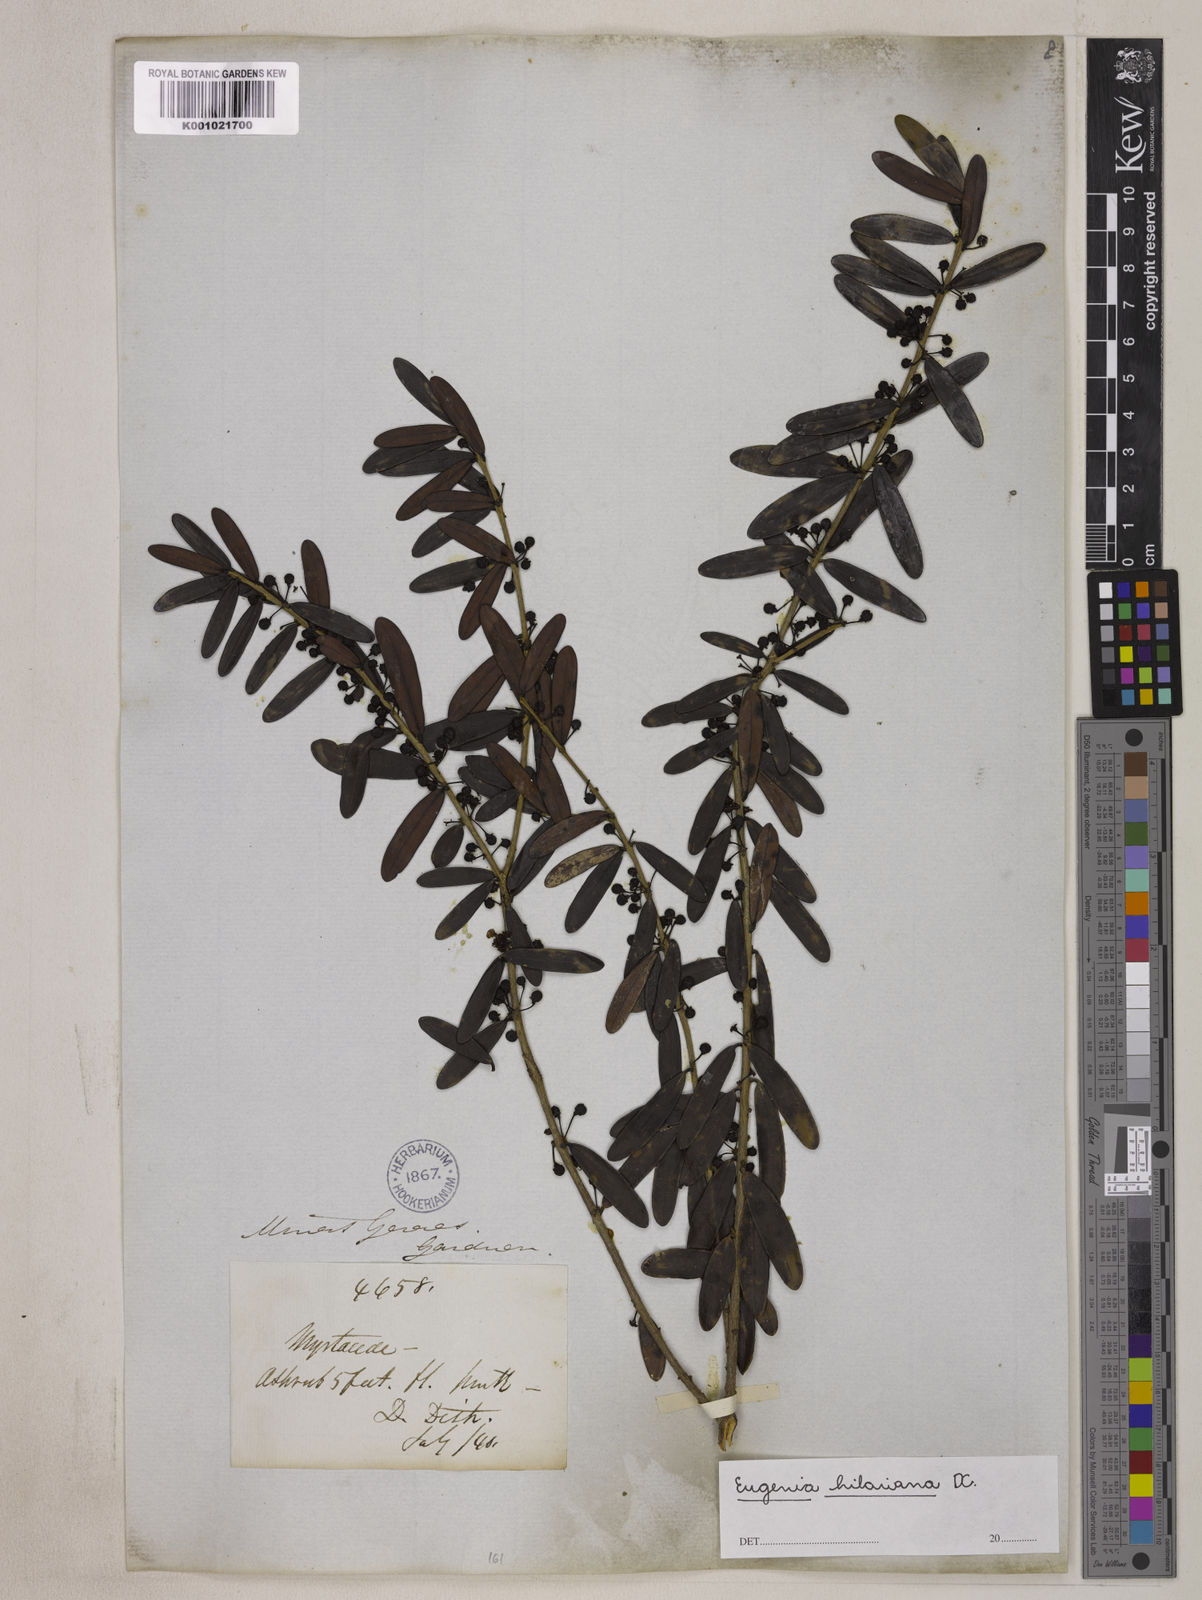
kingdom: Plantae
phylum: Tracheophyta
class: Magnoliopsida
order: Myrtales
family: Myrtaceae
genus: Eugenia
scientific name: Eugenia hilariana
